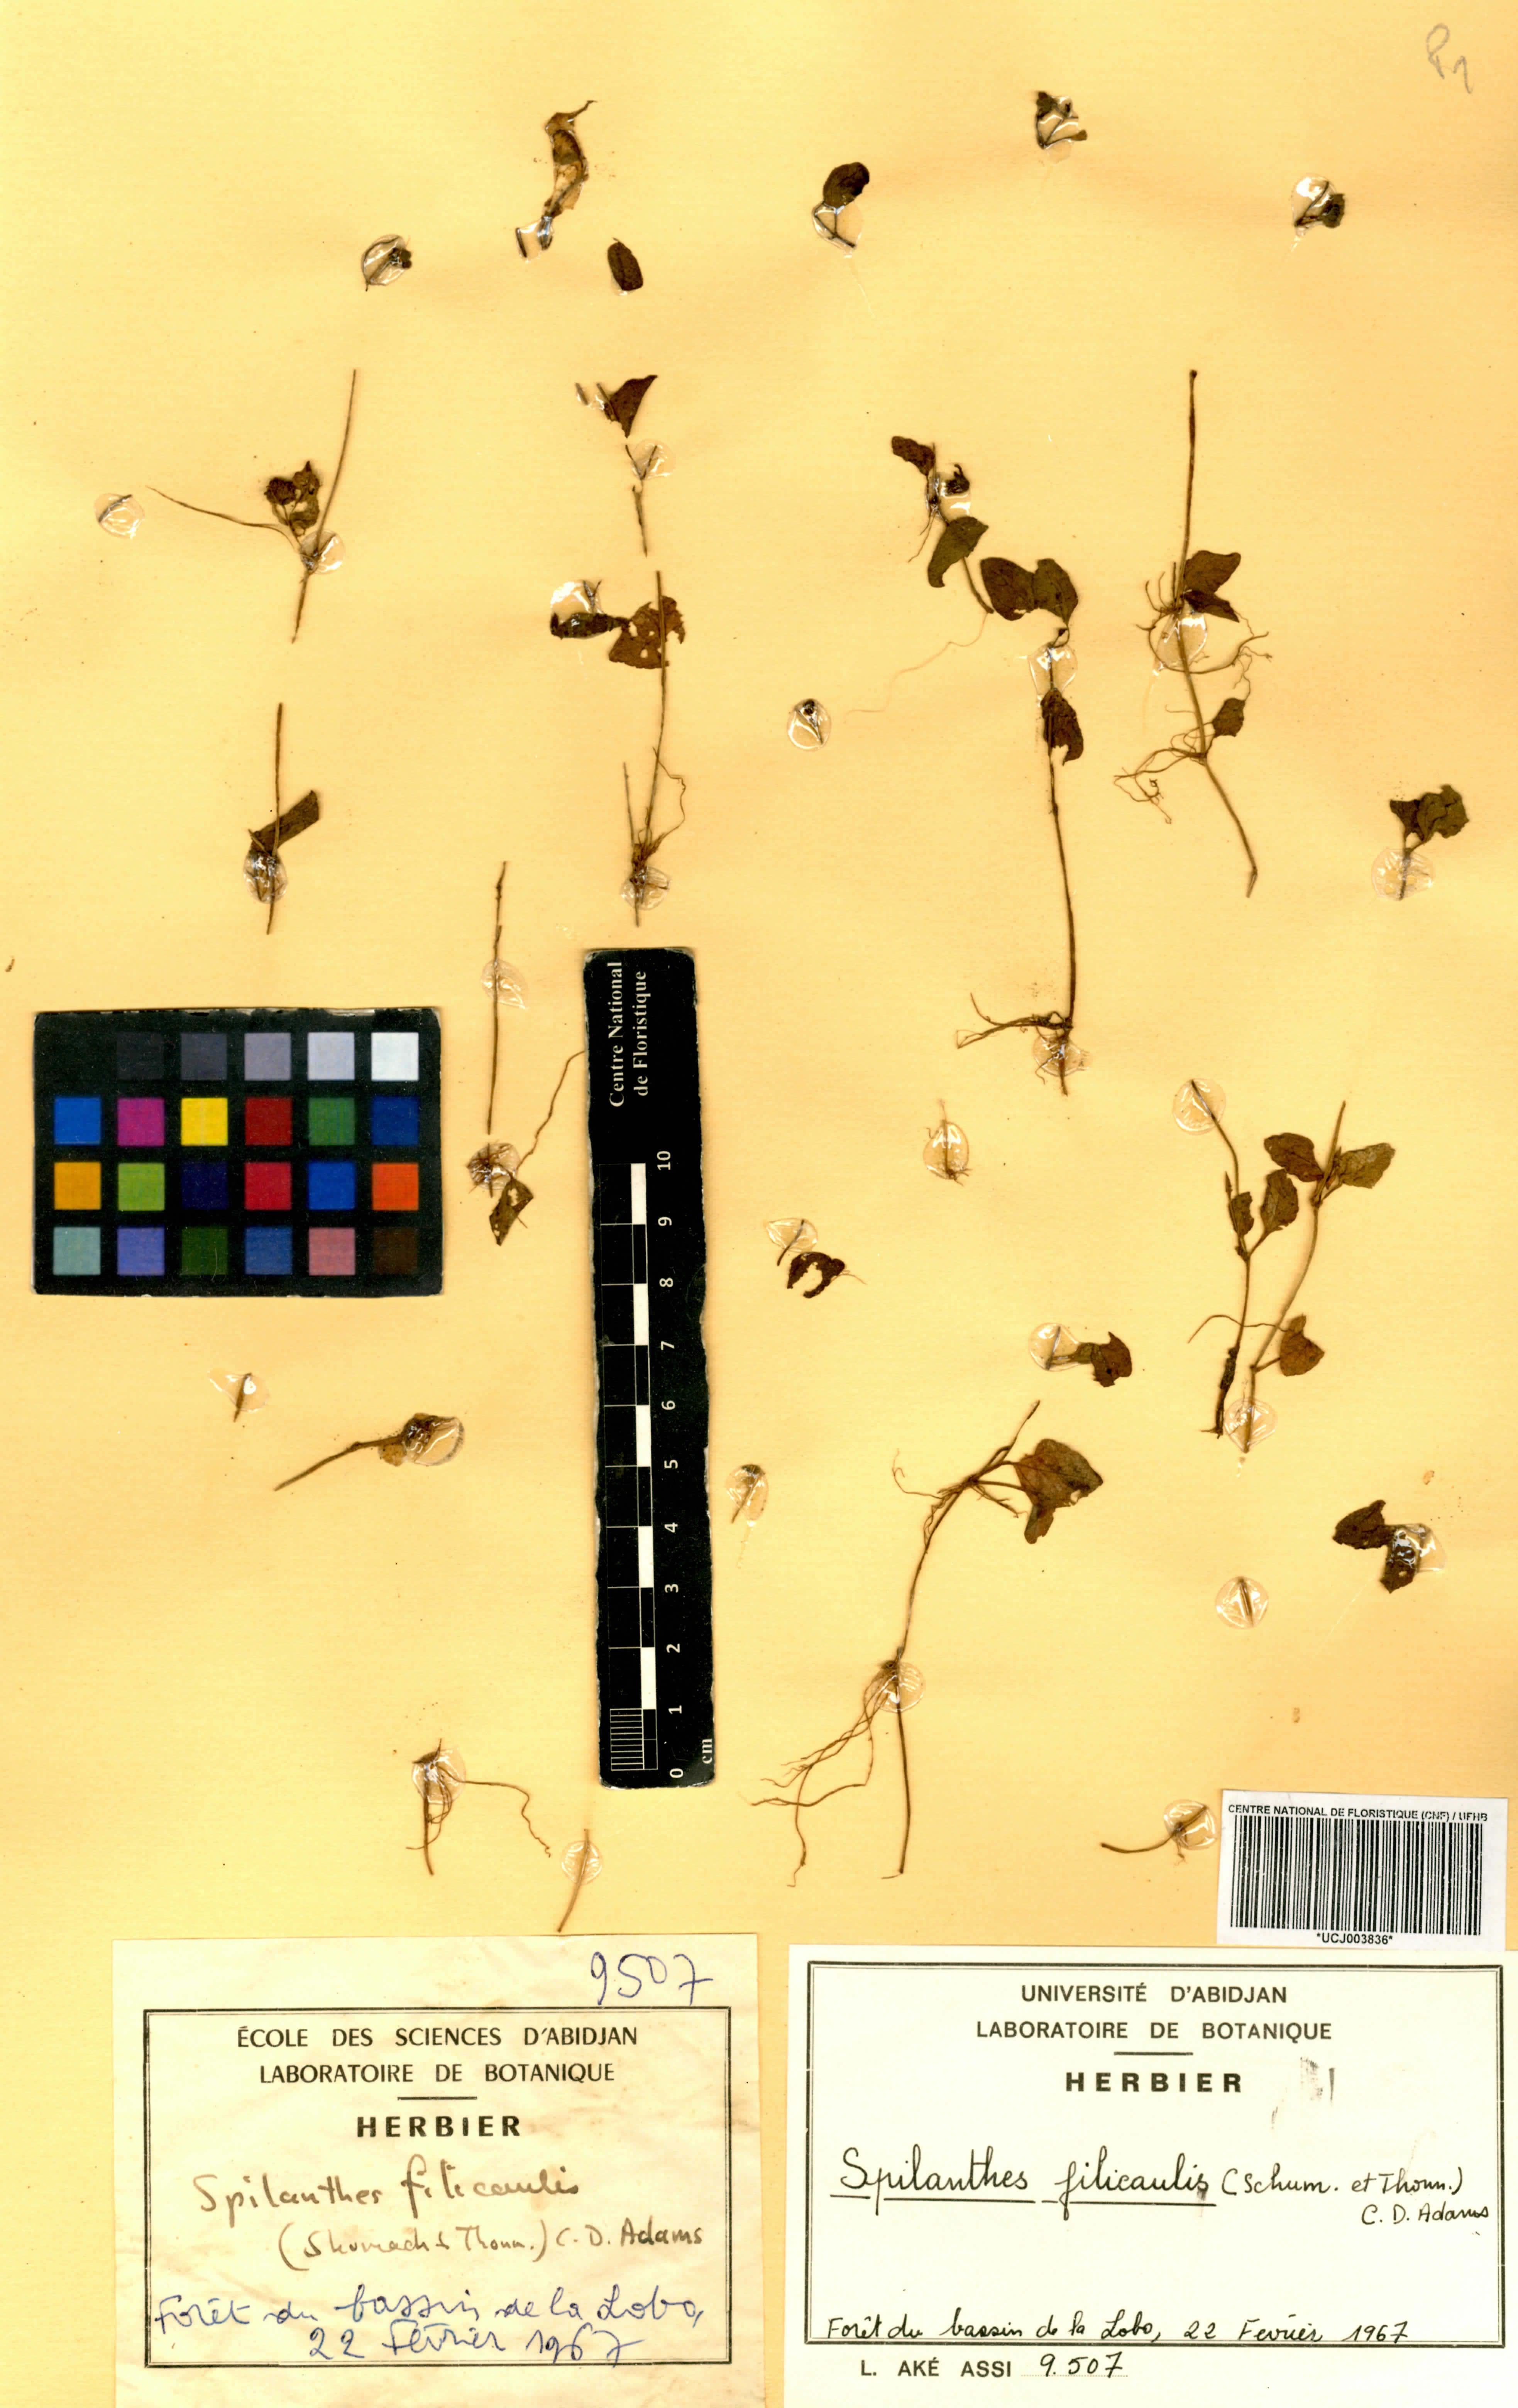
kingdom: Plantae
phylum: Tracheophyta
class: Magnoliopsida
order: Asterales
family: Asteraceae
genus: Acmella
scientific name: Acmella caulirhiza
